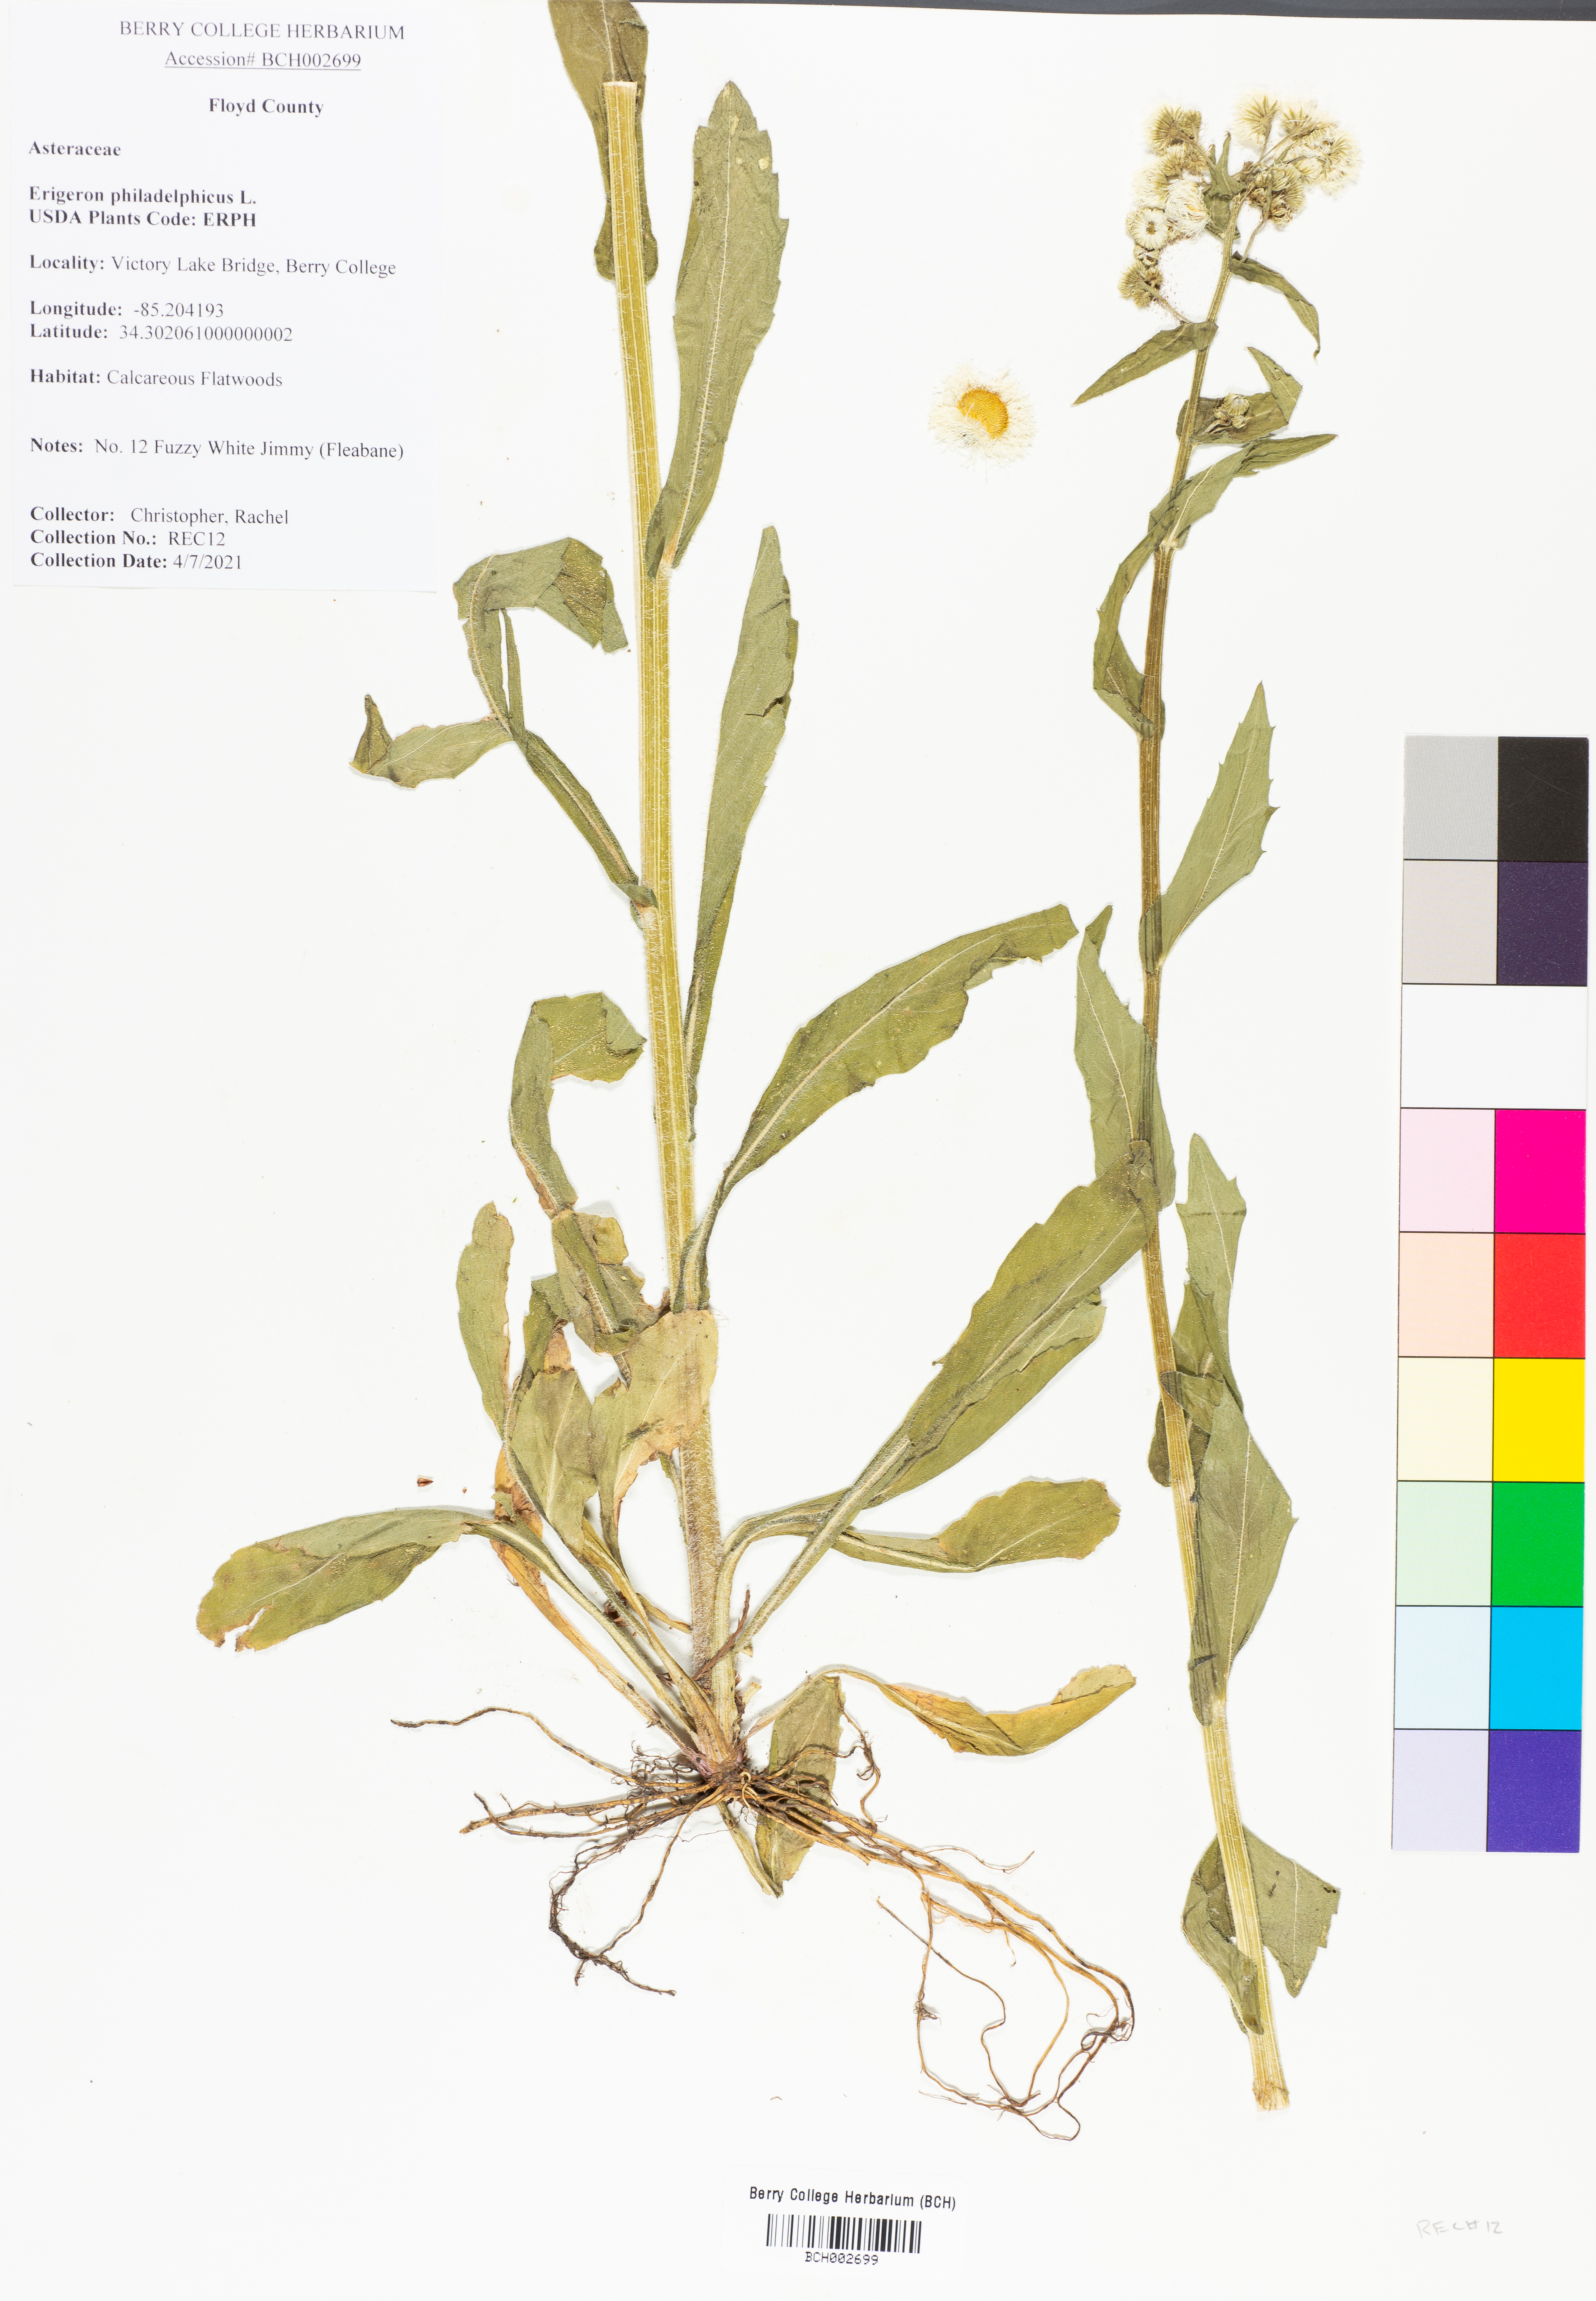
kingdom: Plantae
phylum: Tracheophyta
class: Magnoliopsida
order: Asterales
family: Asteraceae
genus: Erigeron
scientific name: Erigeron philadelphicus
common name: Robin's-plantain
